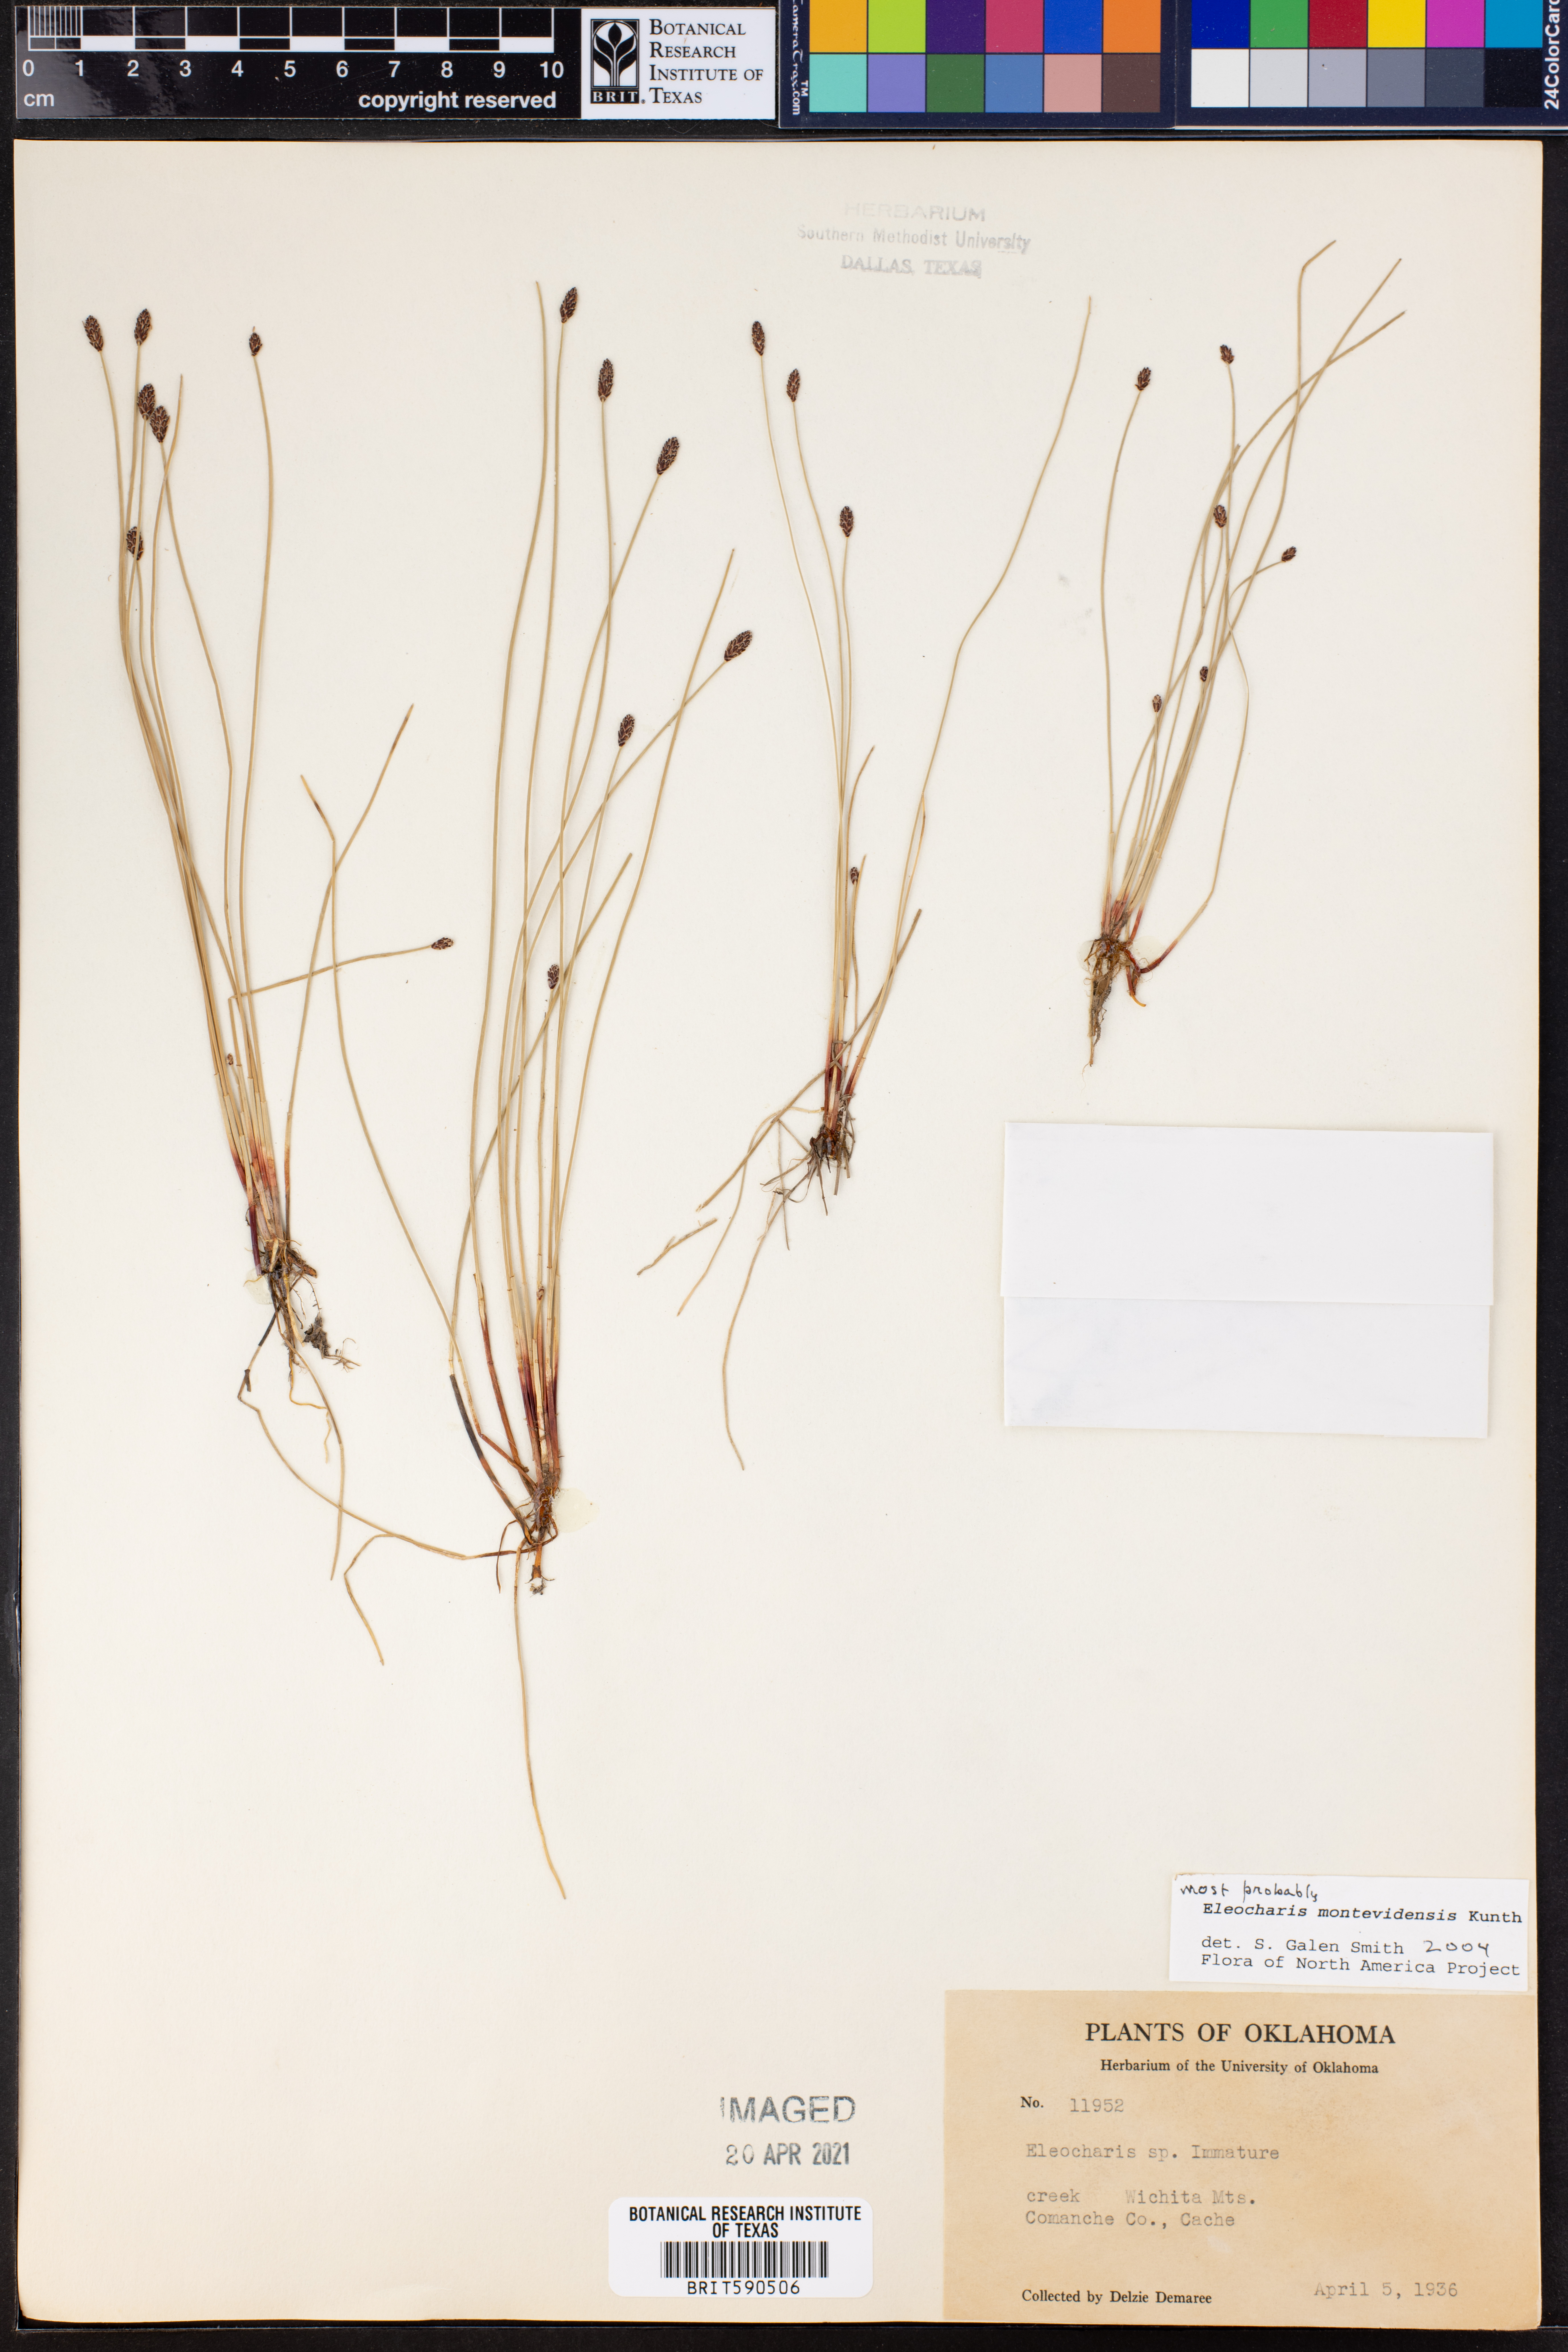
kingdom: Plantae
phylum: Tracheophyta
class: Liliopsida
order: Poales
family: Cyperaceae
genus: Eleocharis
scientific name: Eleocharis montana
